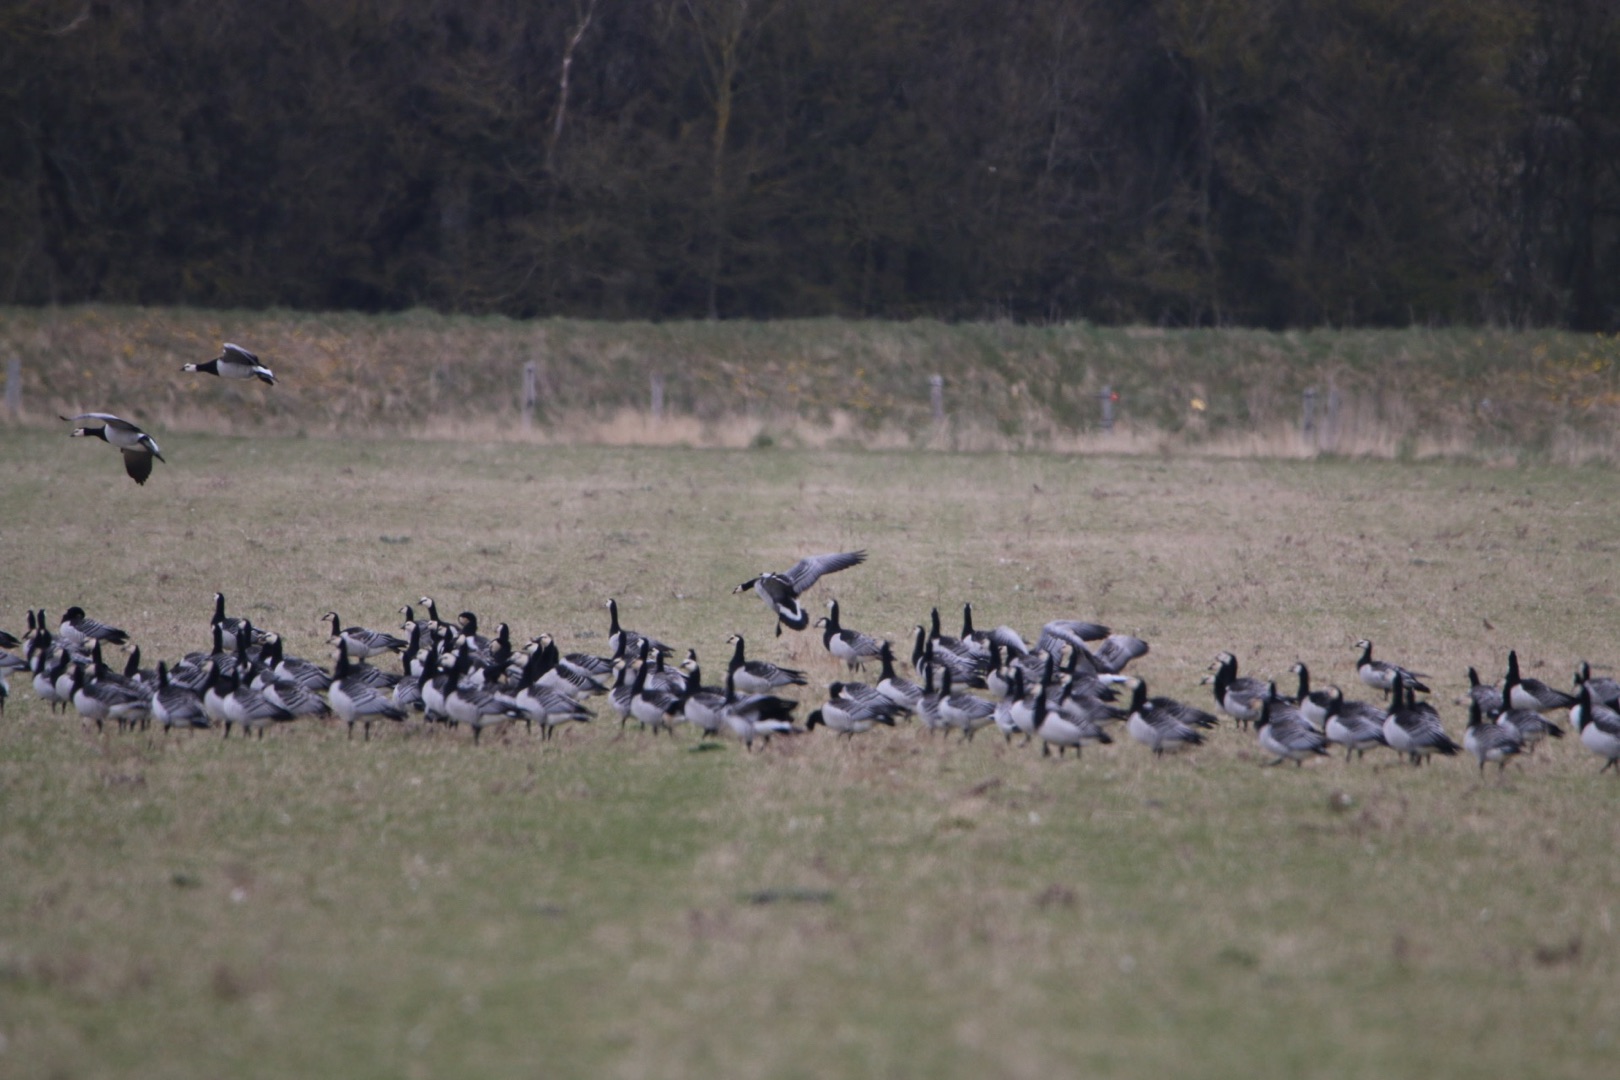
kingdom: Animalia
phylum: Chordata
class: Aves
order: Anseriformes
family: Anatidae
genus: Branta
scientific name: Branta leucopsis
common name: Bramgås
